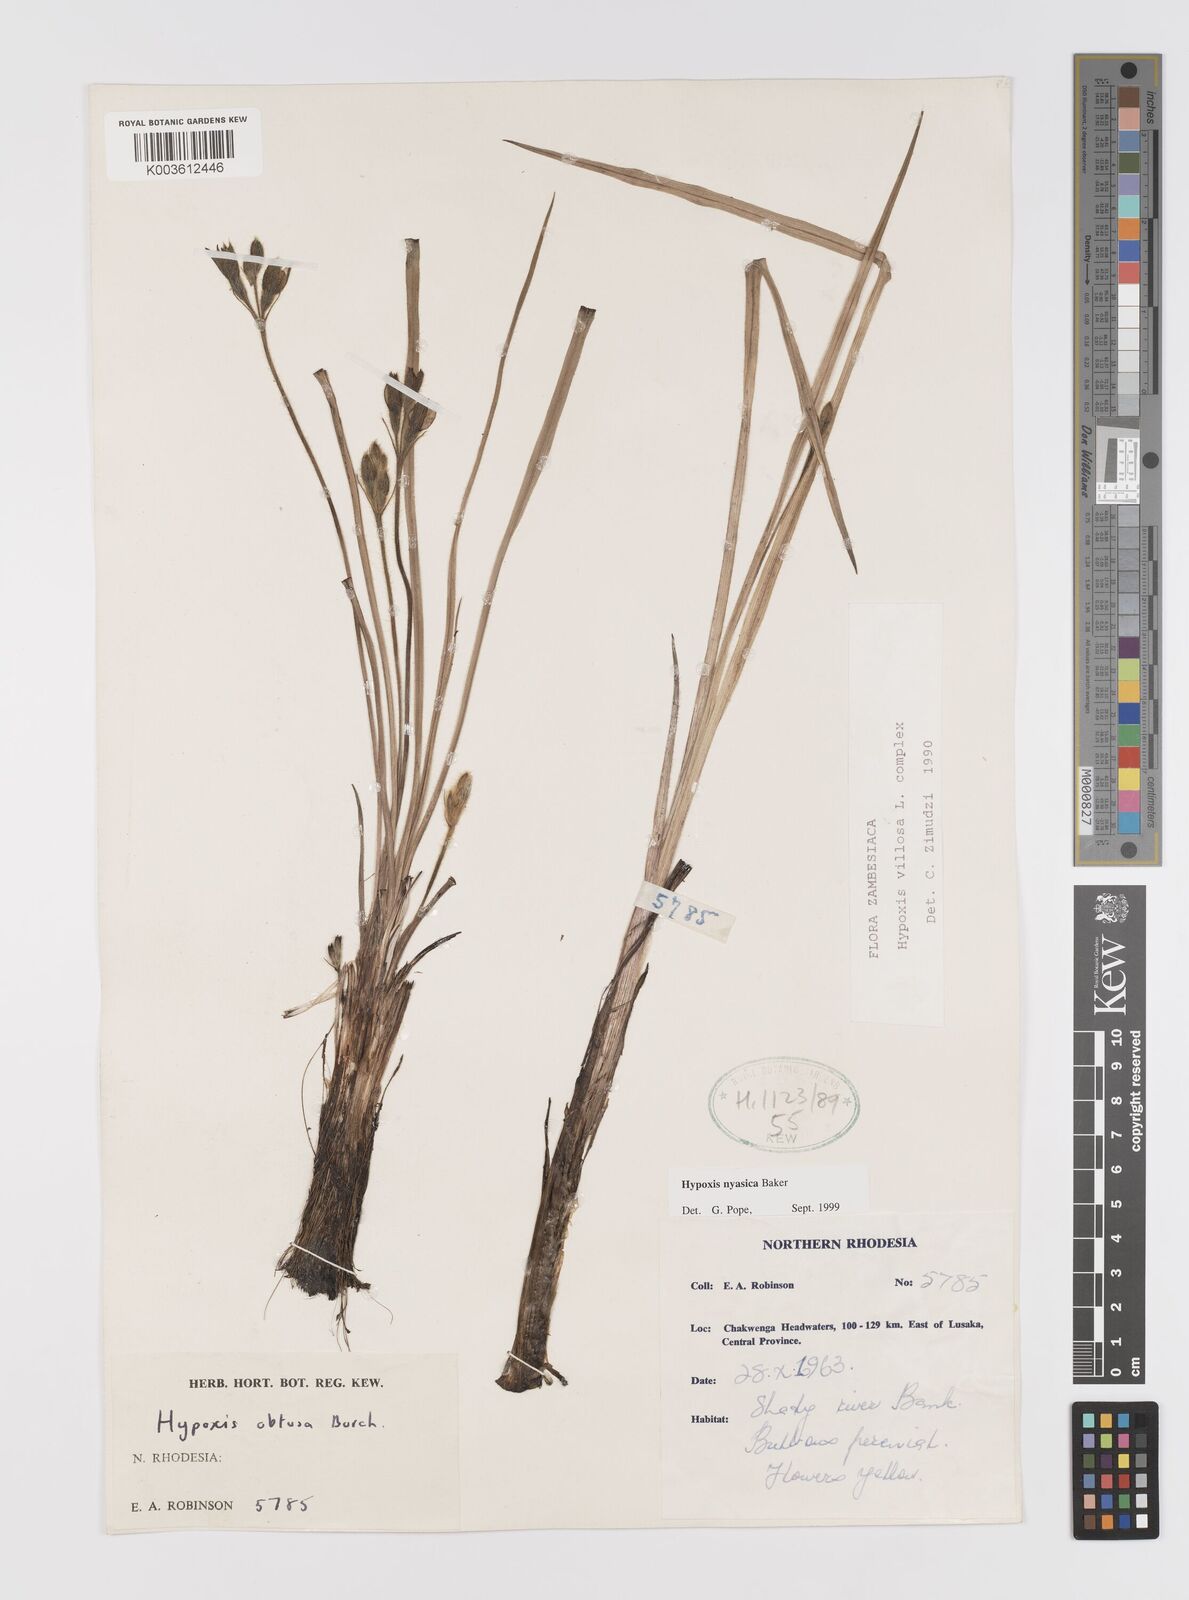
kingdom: Plantae
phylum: Tracheophyta
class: Liliopsida
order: Asparagales
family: Hypoxidaceae
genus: Hypoxis
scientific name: Hypoxis nyasica
